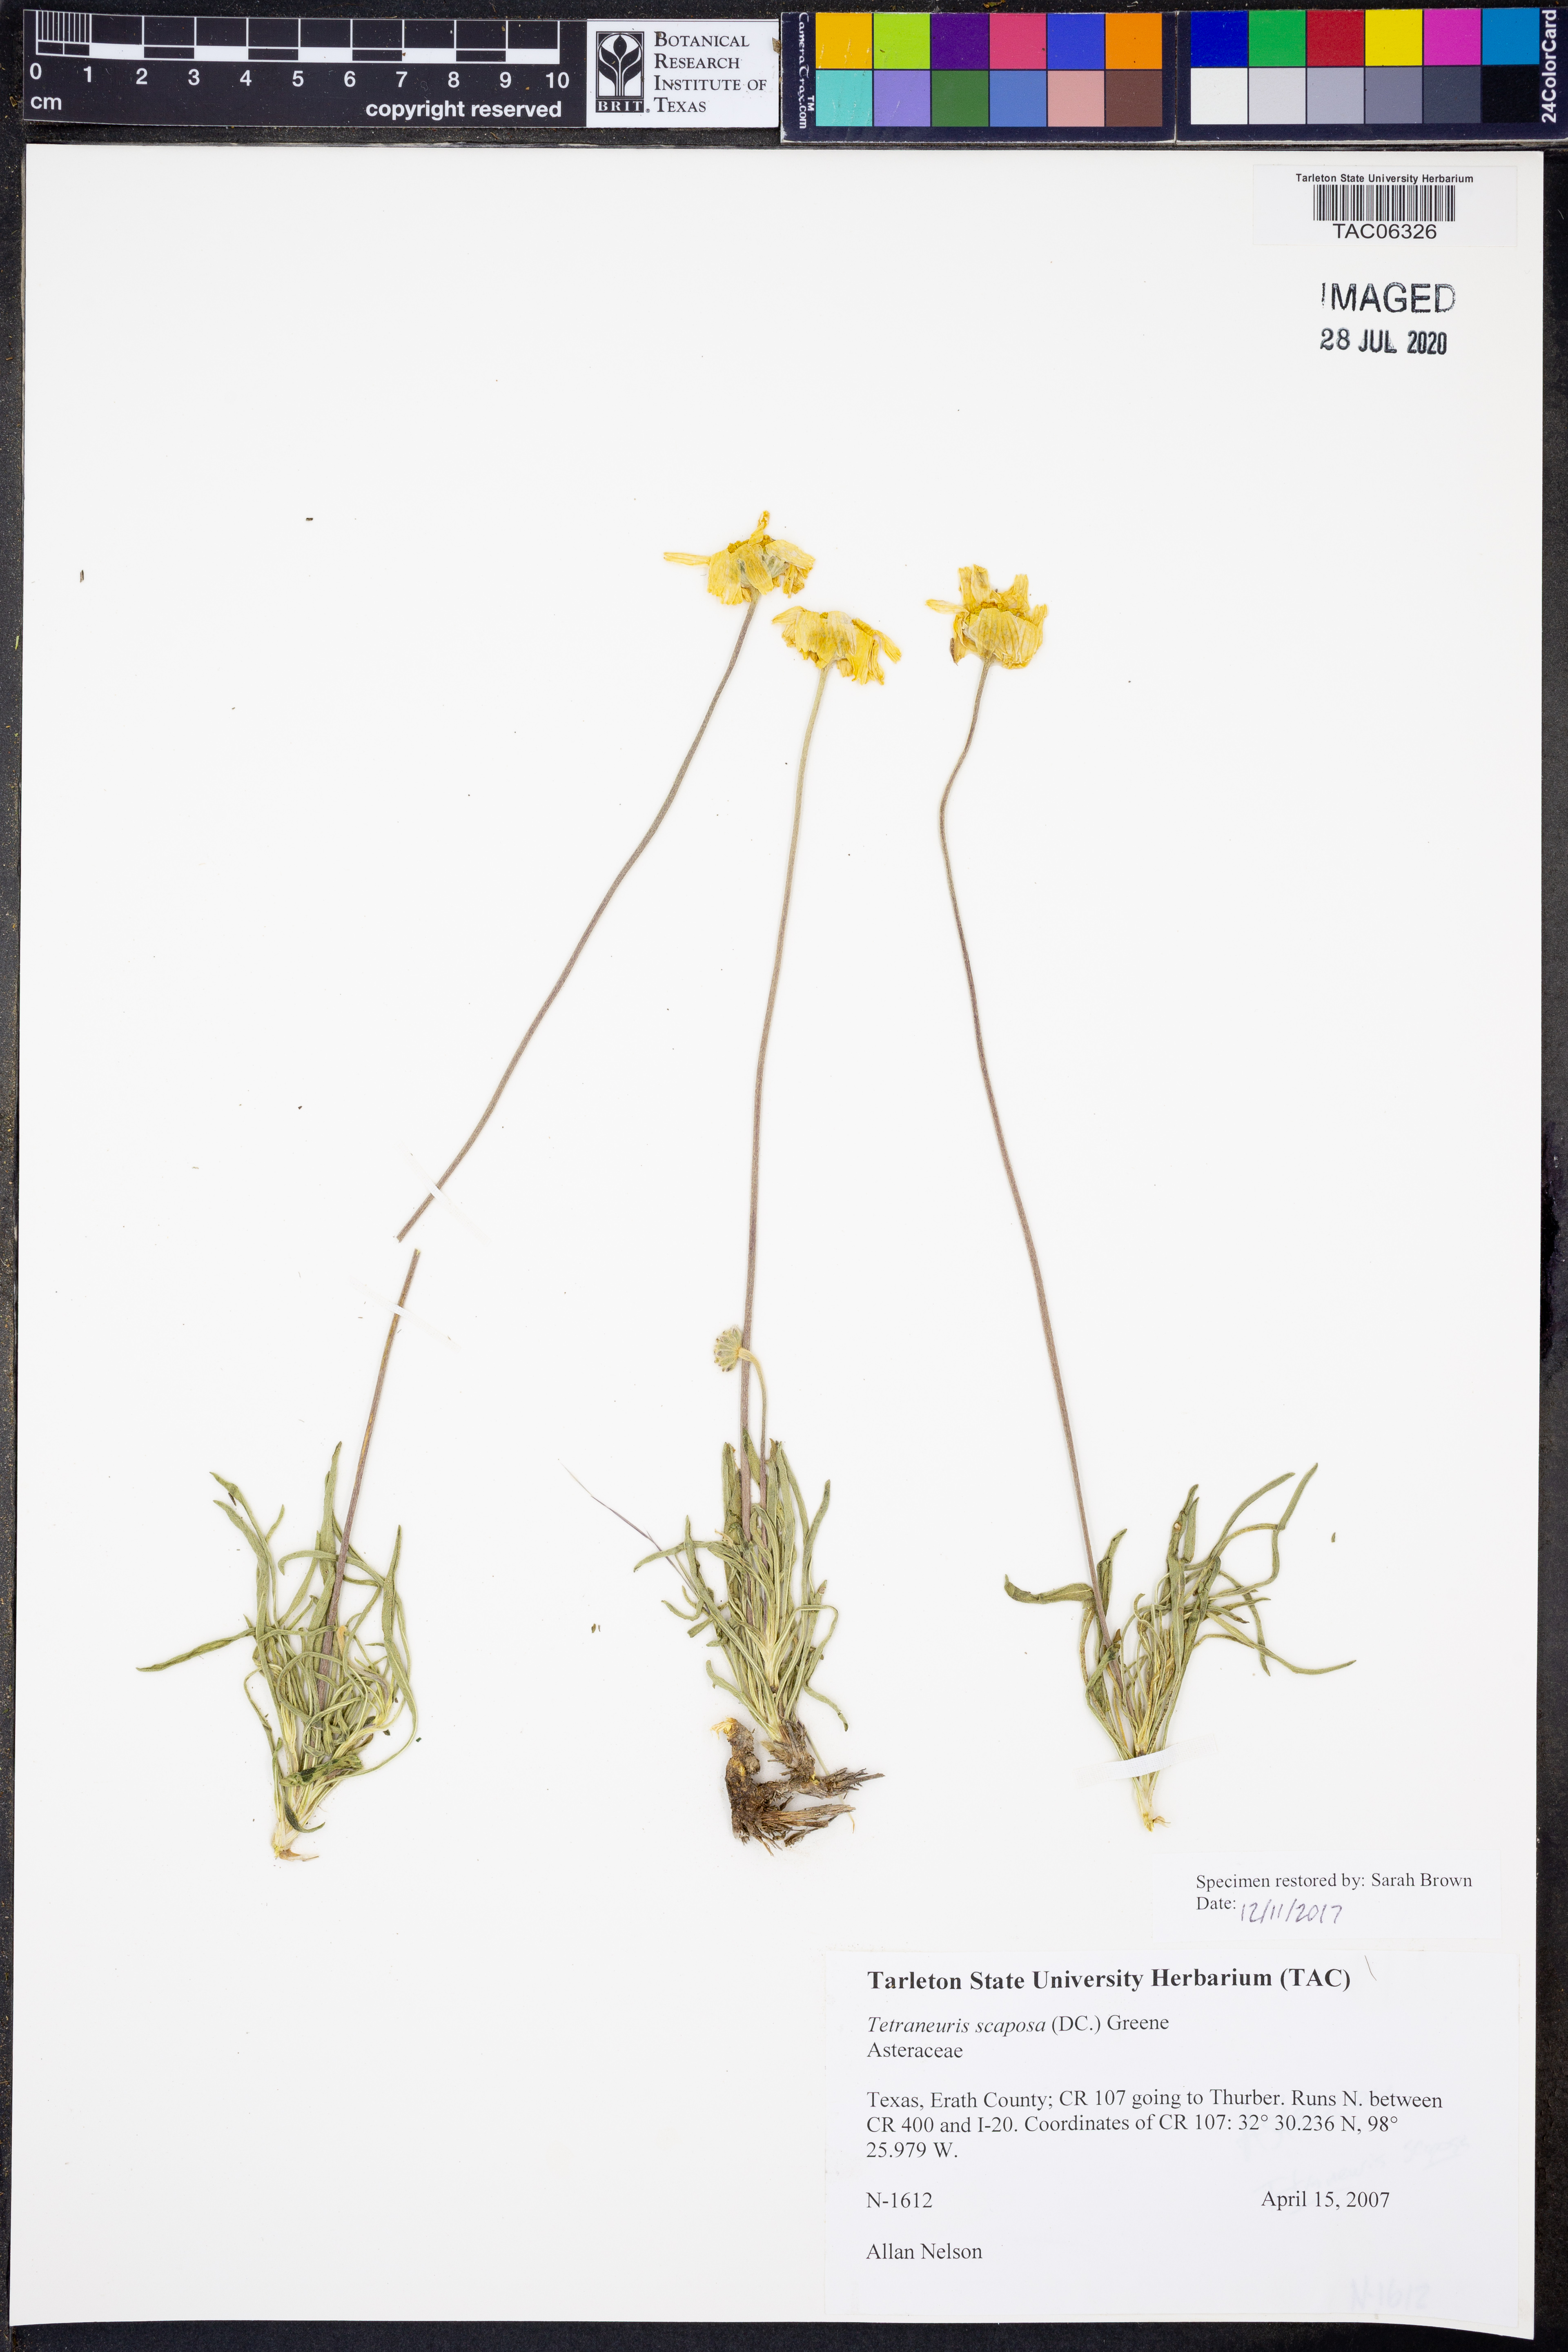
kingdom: Plantae
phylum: Tracheophyta
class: Magnoliopsida
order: Asterales
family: Asteraceae
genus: Tetraneuris
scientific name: Tetraneuris scaposa
